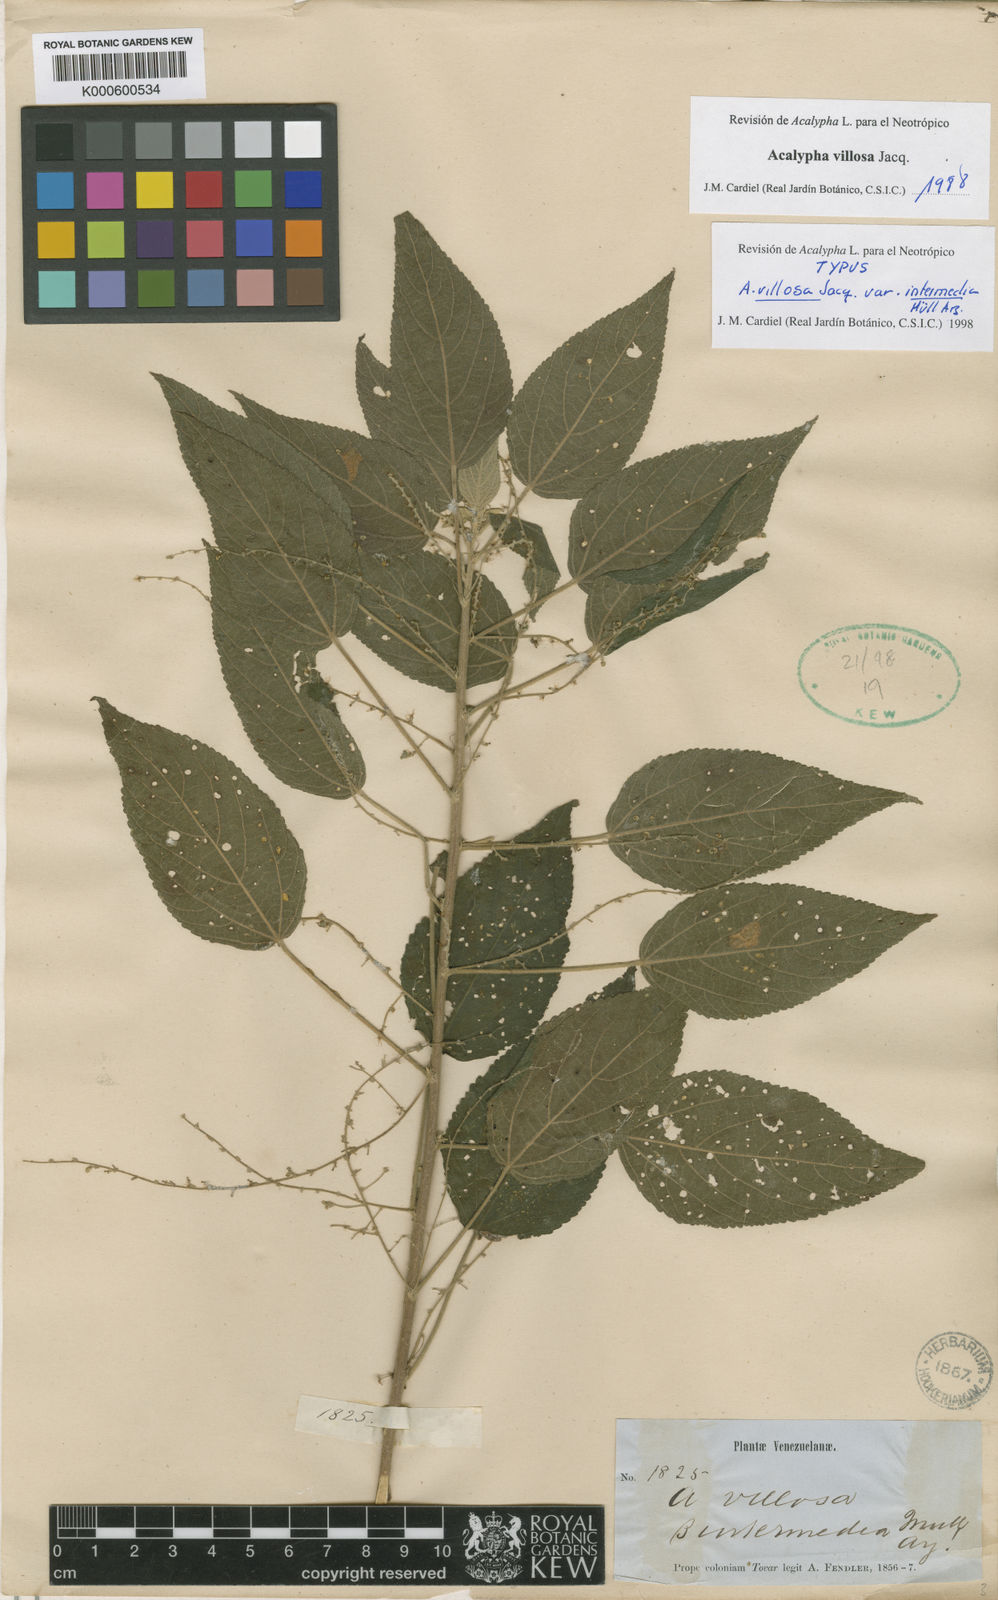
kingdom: Plantae
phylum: Tracheophyta
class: Magnoliopsida
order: Malpighiales
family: Euphorbiaceae
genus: Acalypha
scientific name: Acalypha villosa
